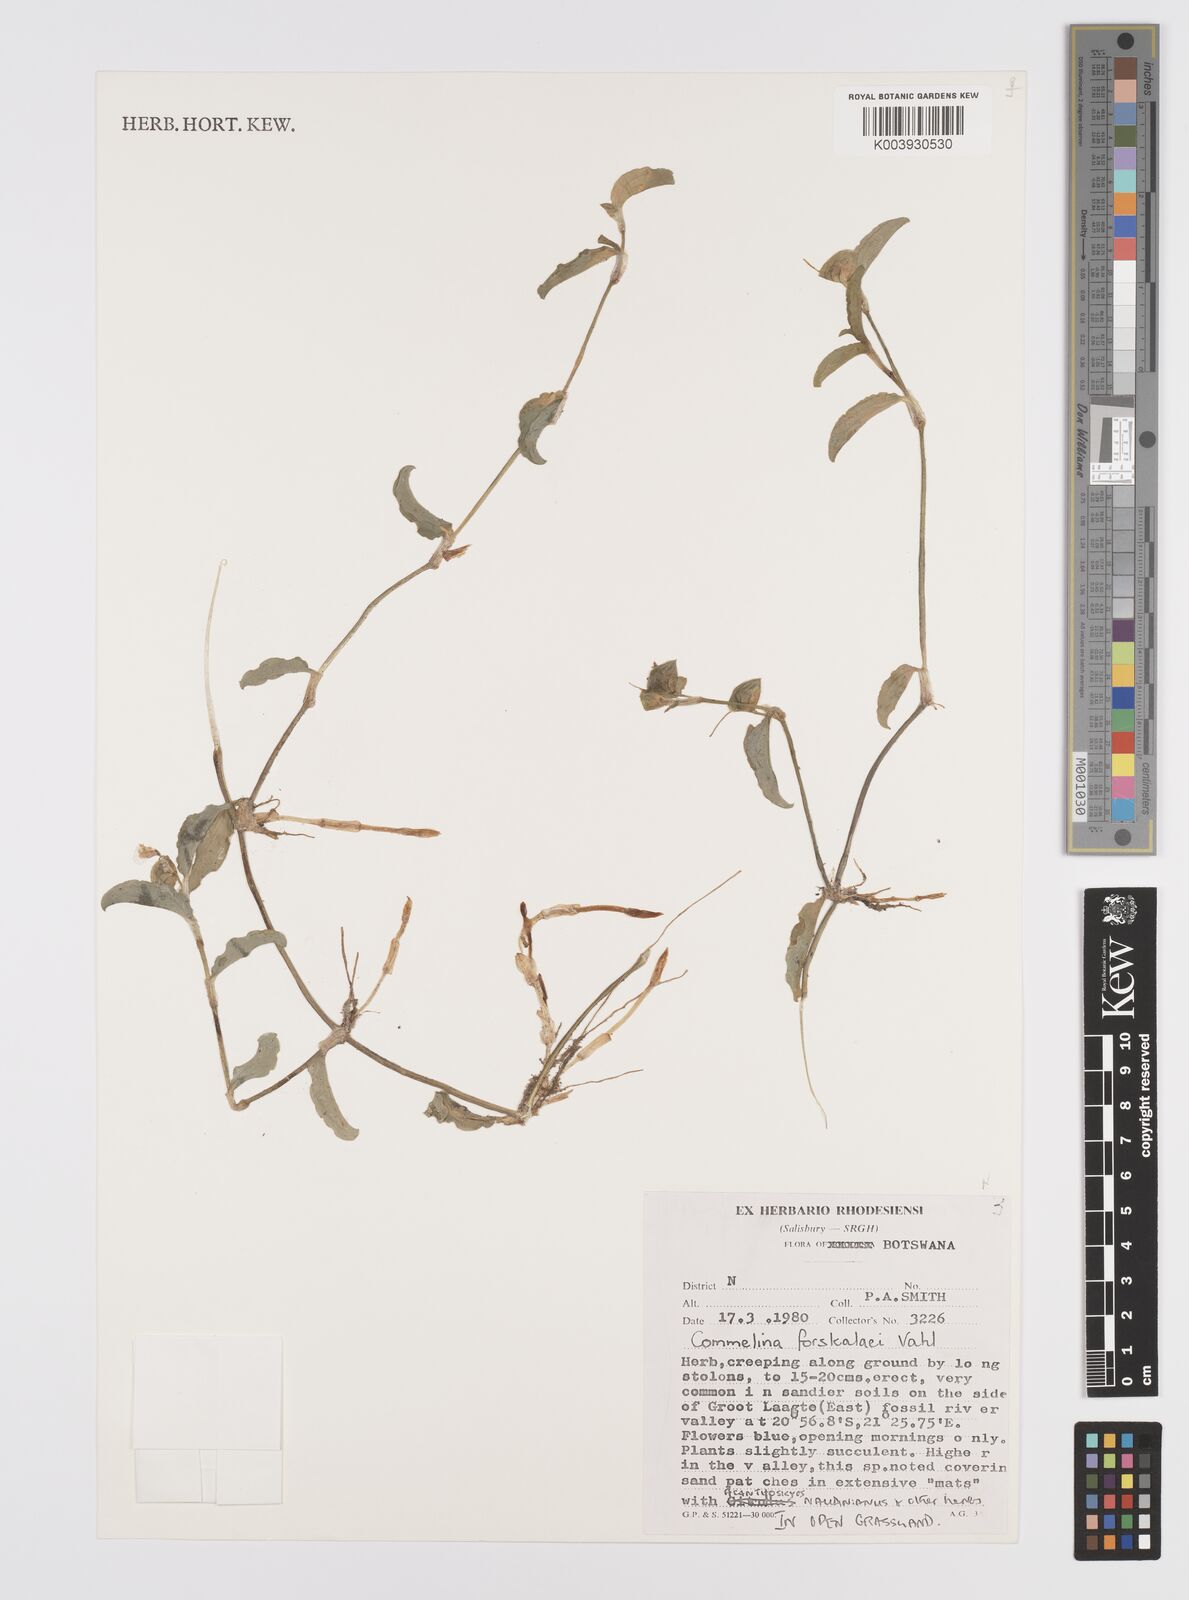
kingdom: Plantae
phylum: Tracheophyta
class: Liliopsida
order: Commelinales
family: Commelinaceae
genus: Commelina
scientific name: Commelina forskaolii
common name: Rat's ear
